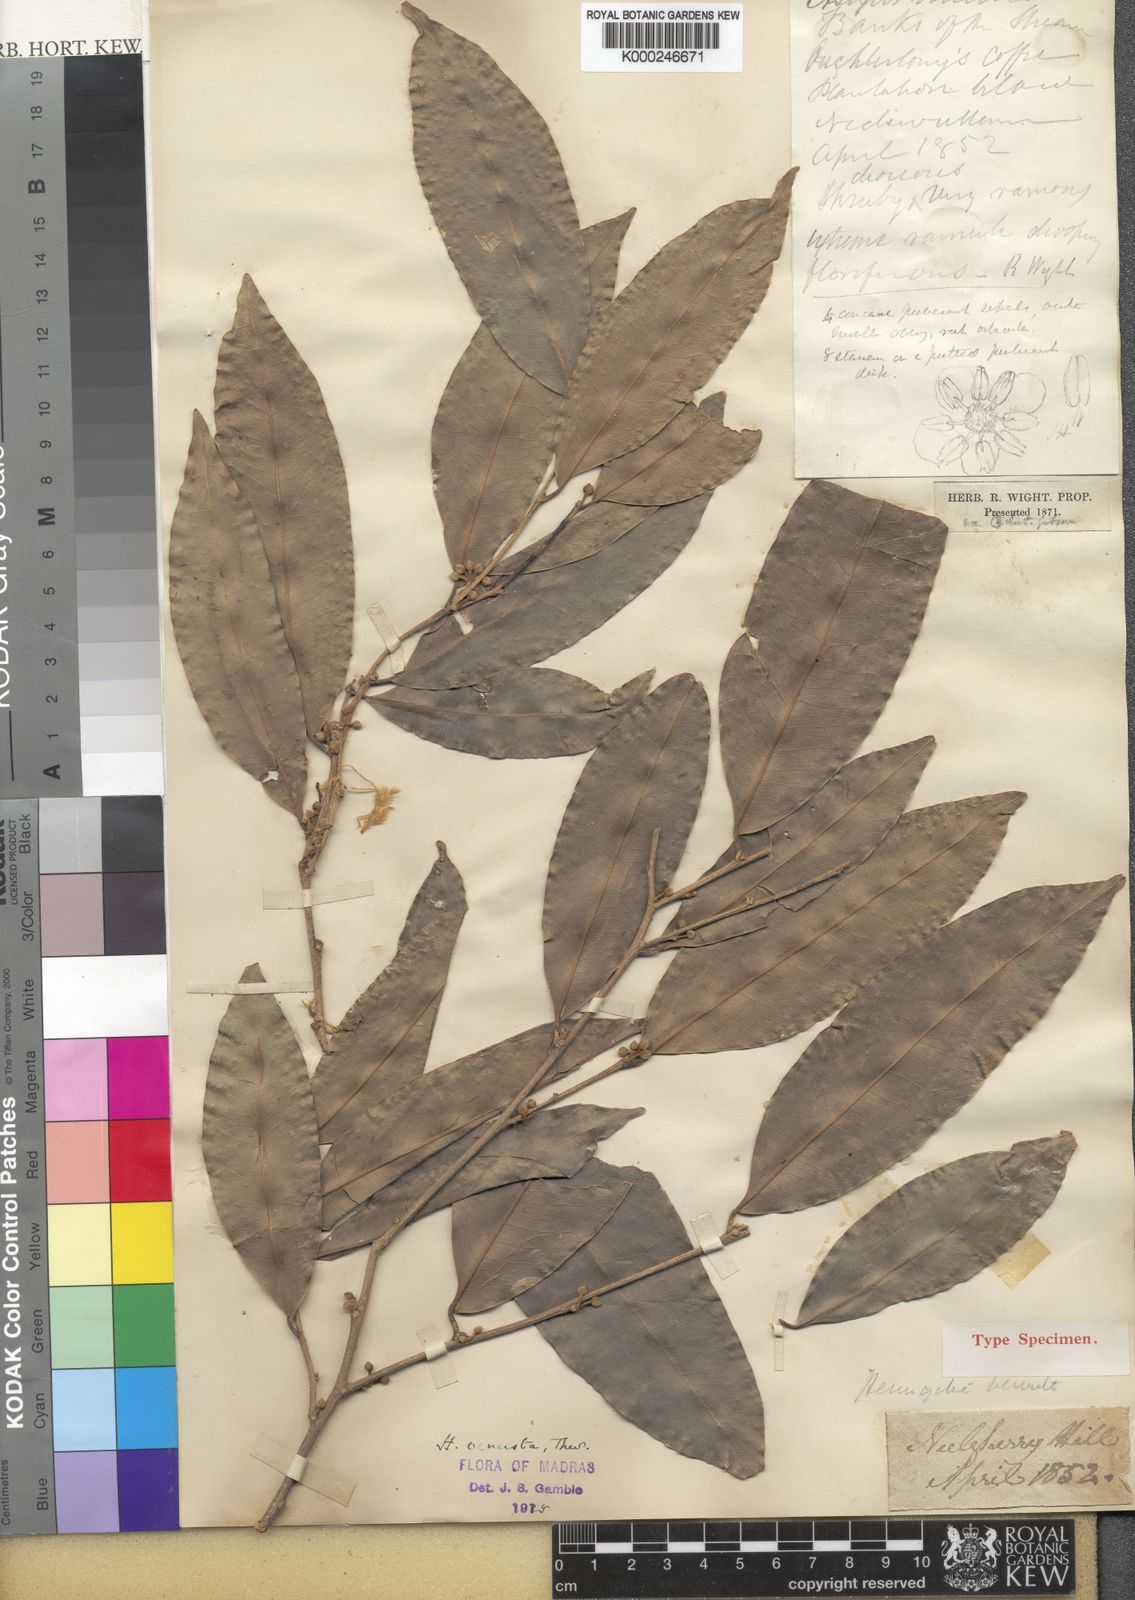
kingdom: Plantae
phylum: Tracheophyta
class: Magnoliopsida
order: Malpighiales
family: Putranjivaceae
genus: Drypetes
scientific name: Drypetes venusta
